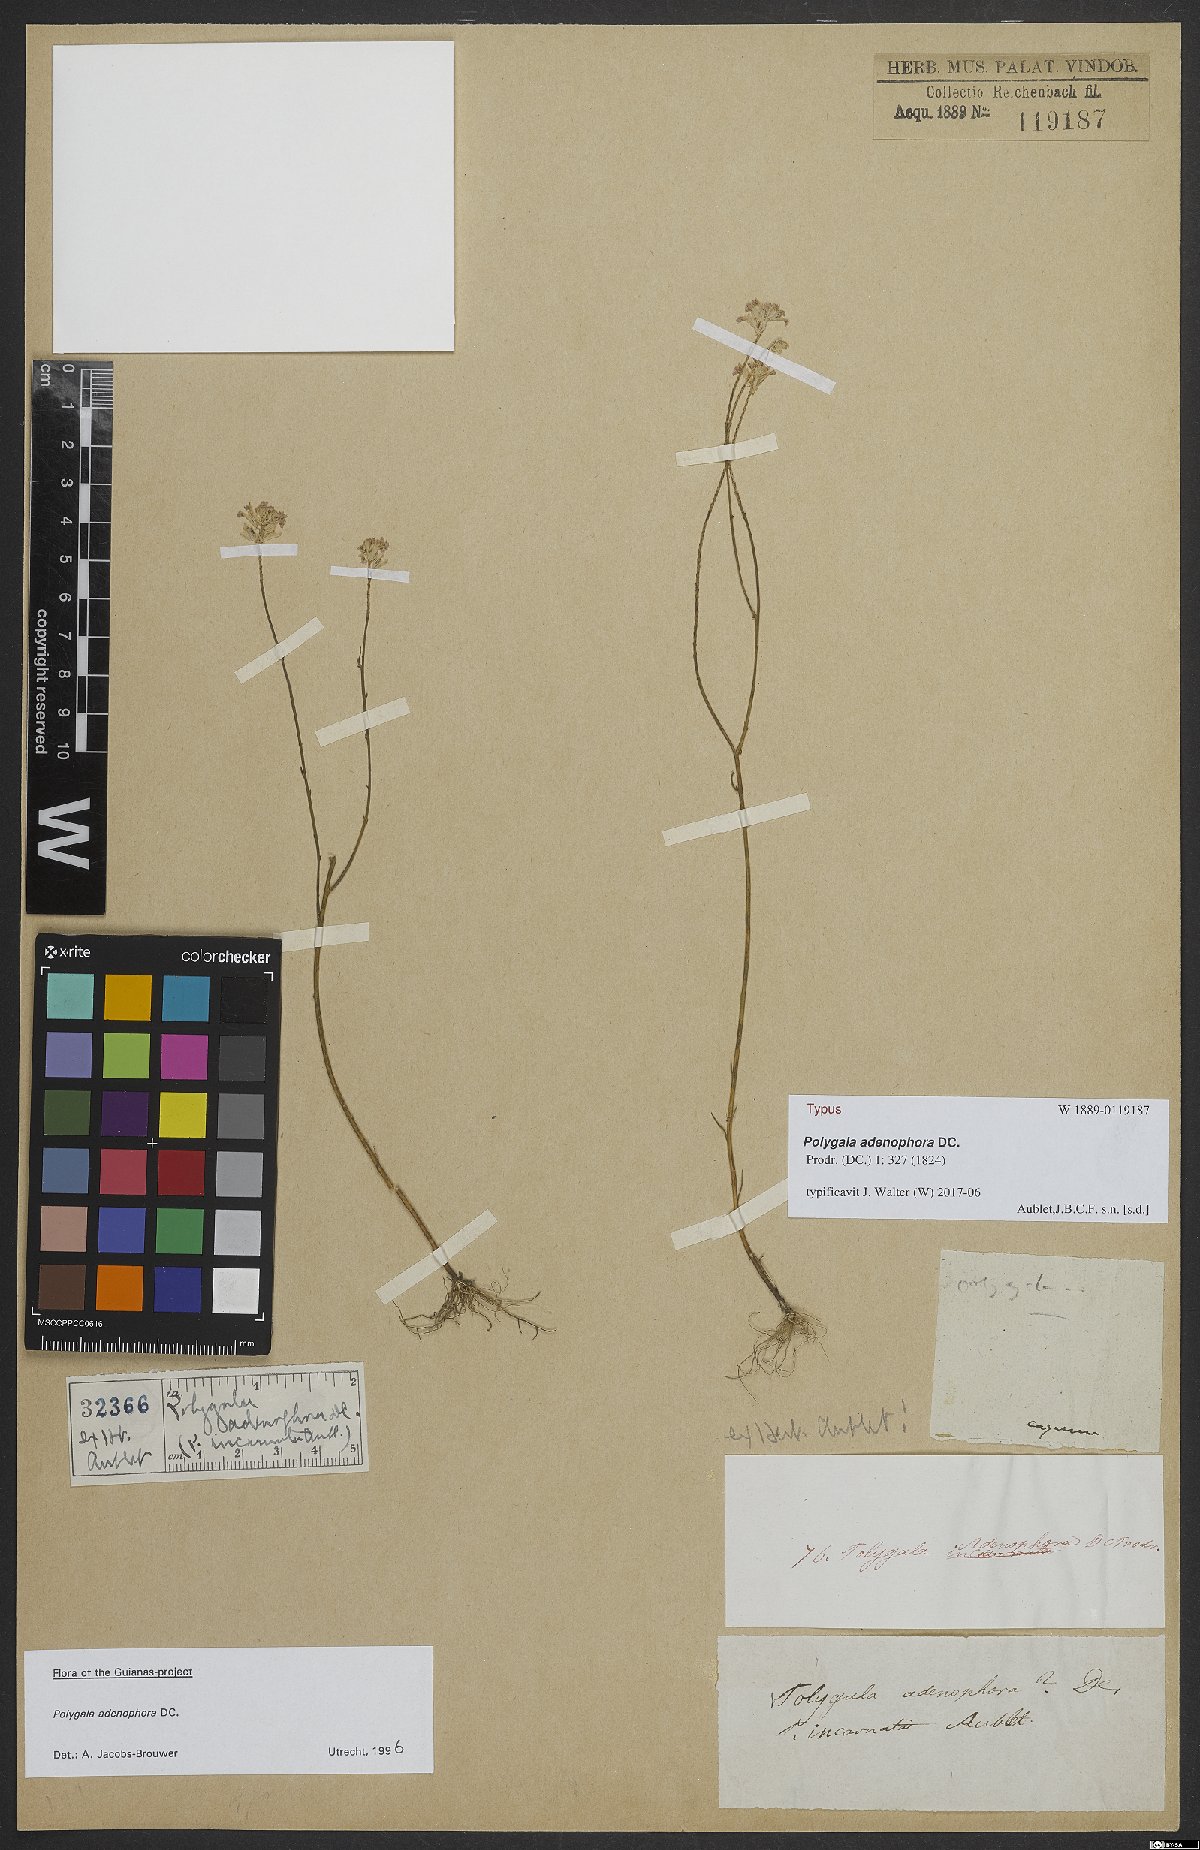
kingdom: Plantae
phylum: Tracheophyta
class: Magnoliopsida
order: Fabales
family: Polygalaceae
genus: Polygala
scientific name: Polygala adenophora
